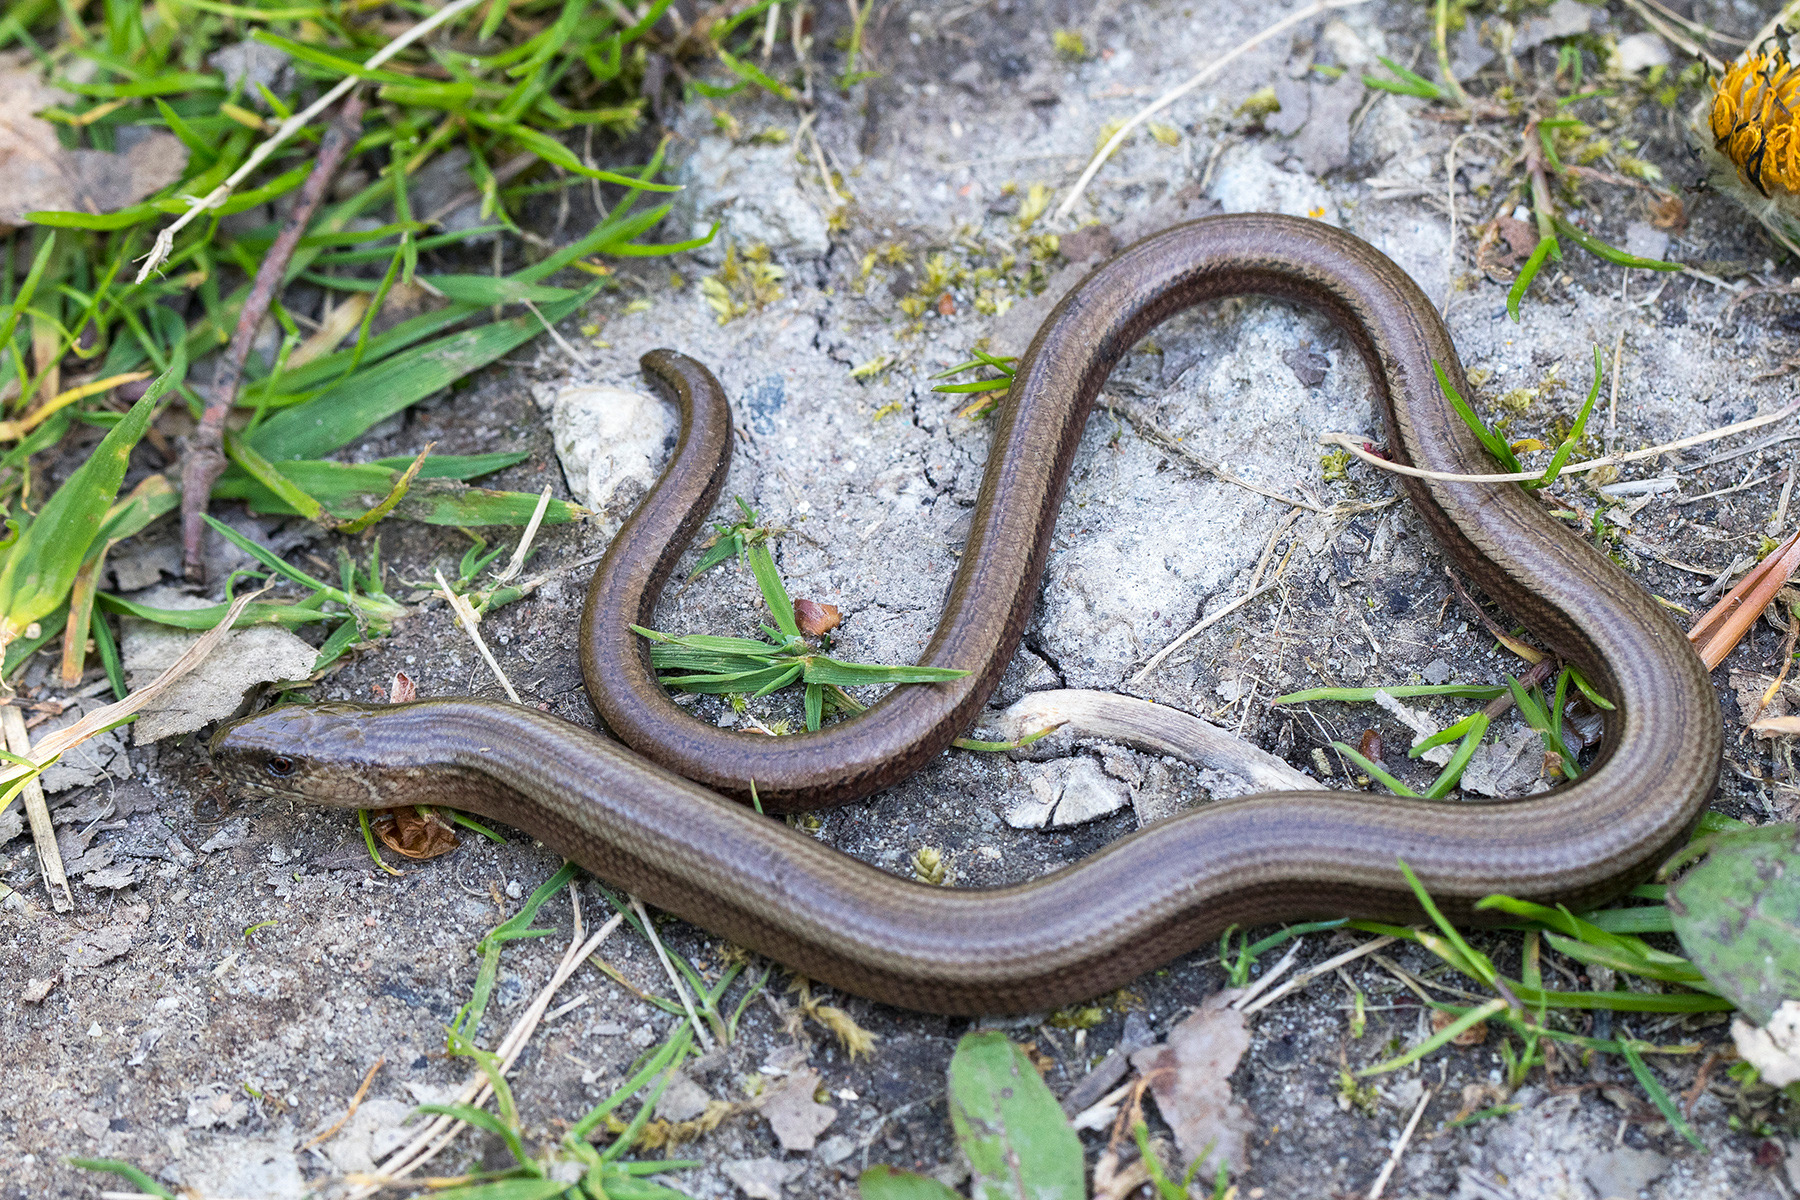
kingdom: Animalia
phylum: Chordata
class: Squamata
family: Anguidae
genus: Anguis
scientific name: Anguis fragilis
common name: Stålorm
